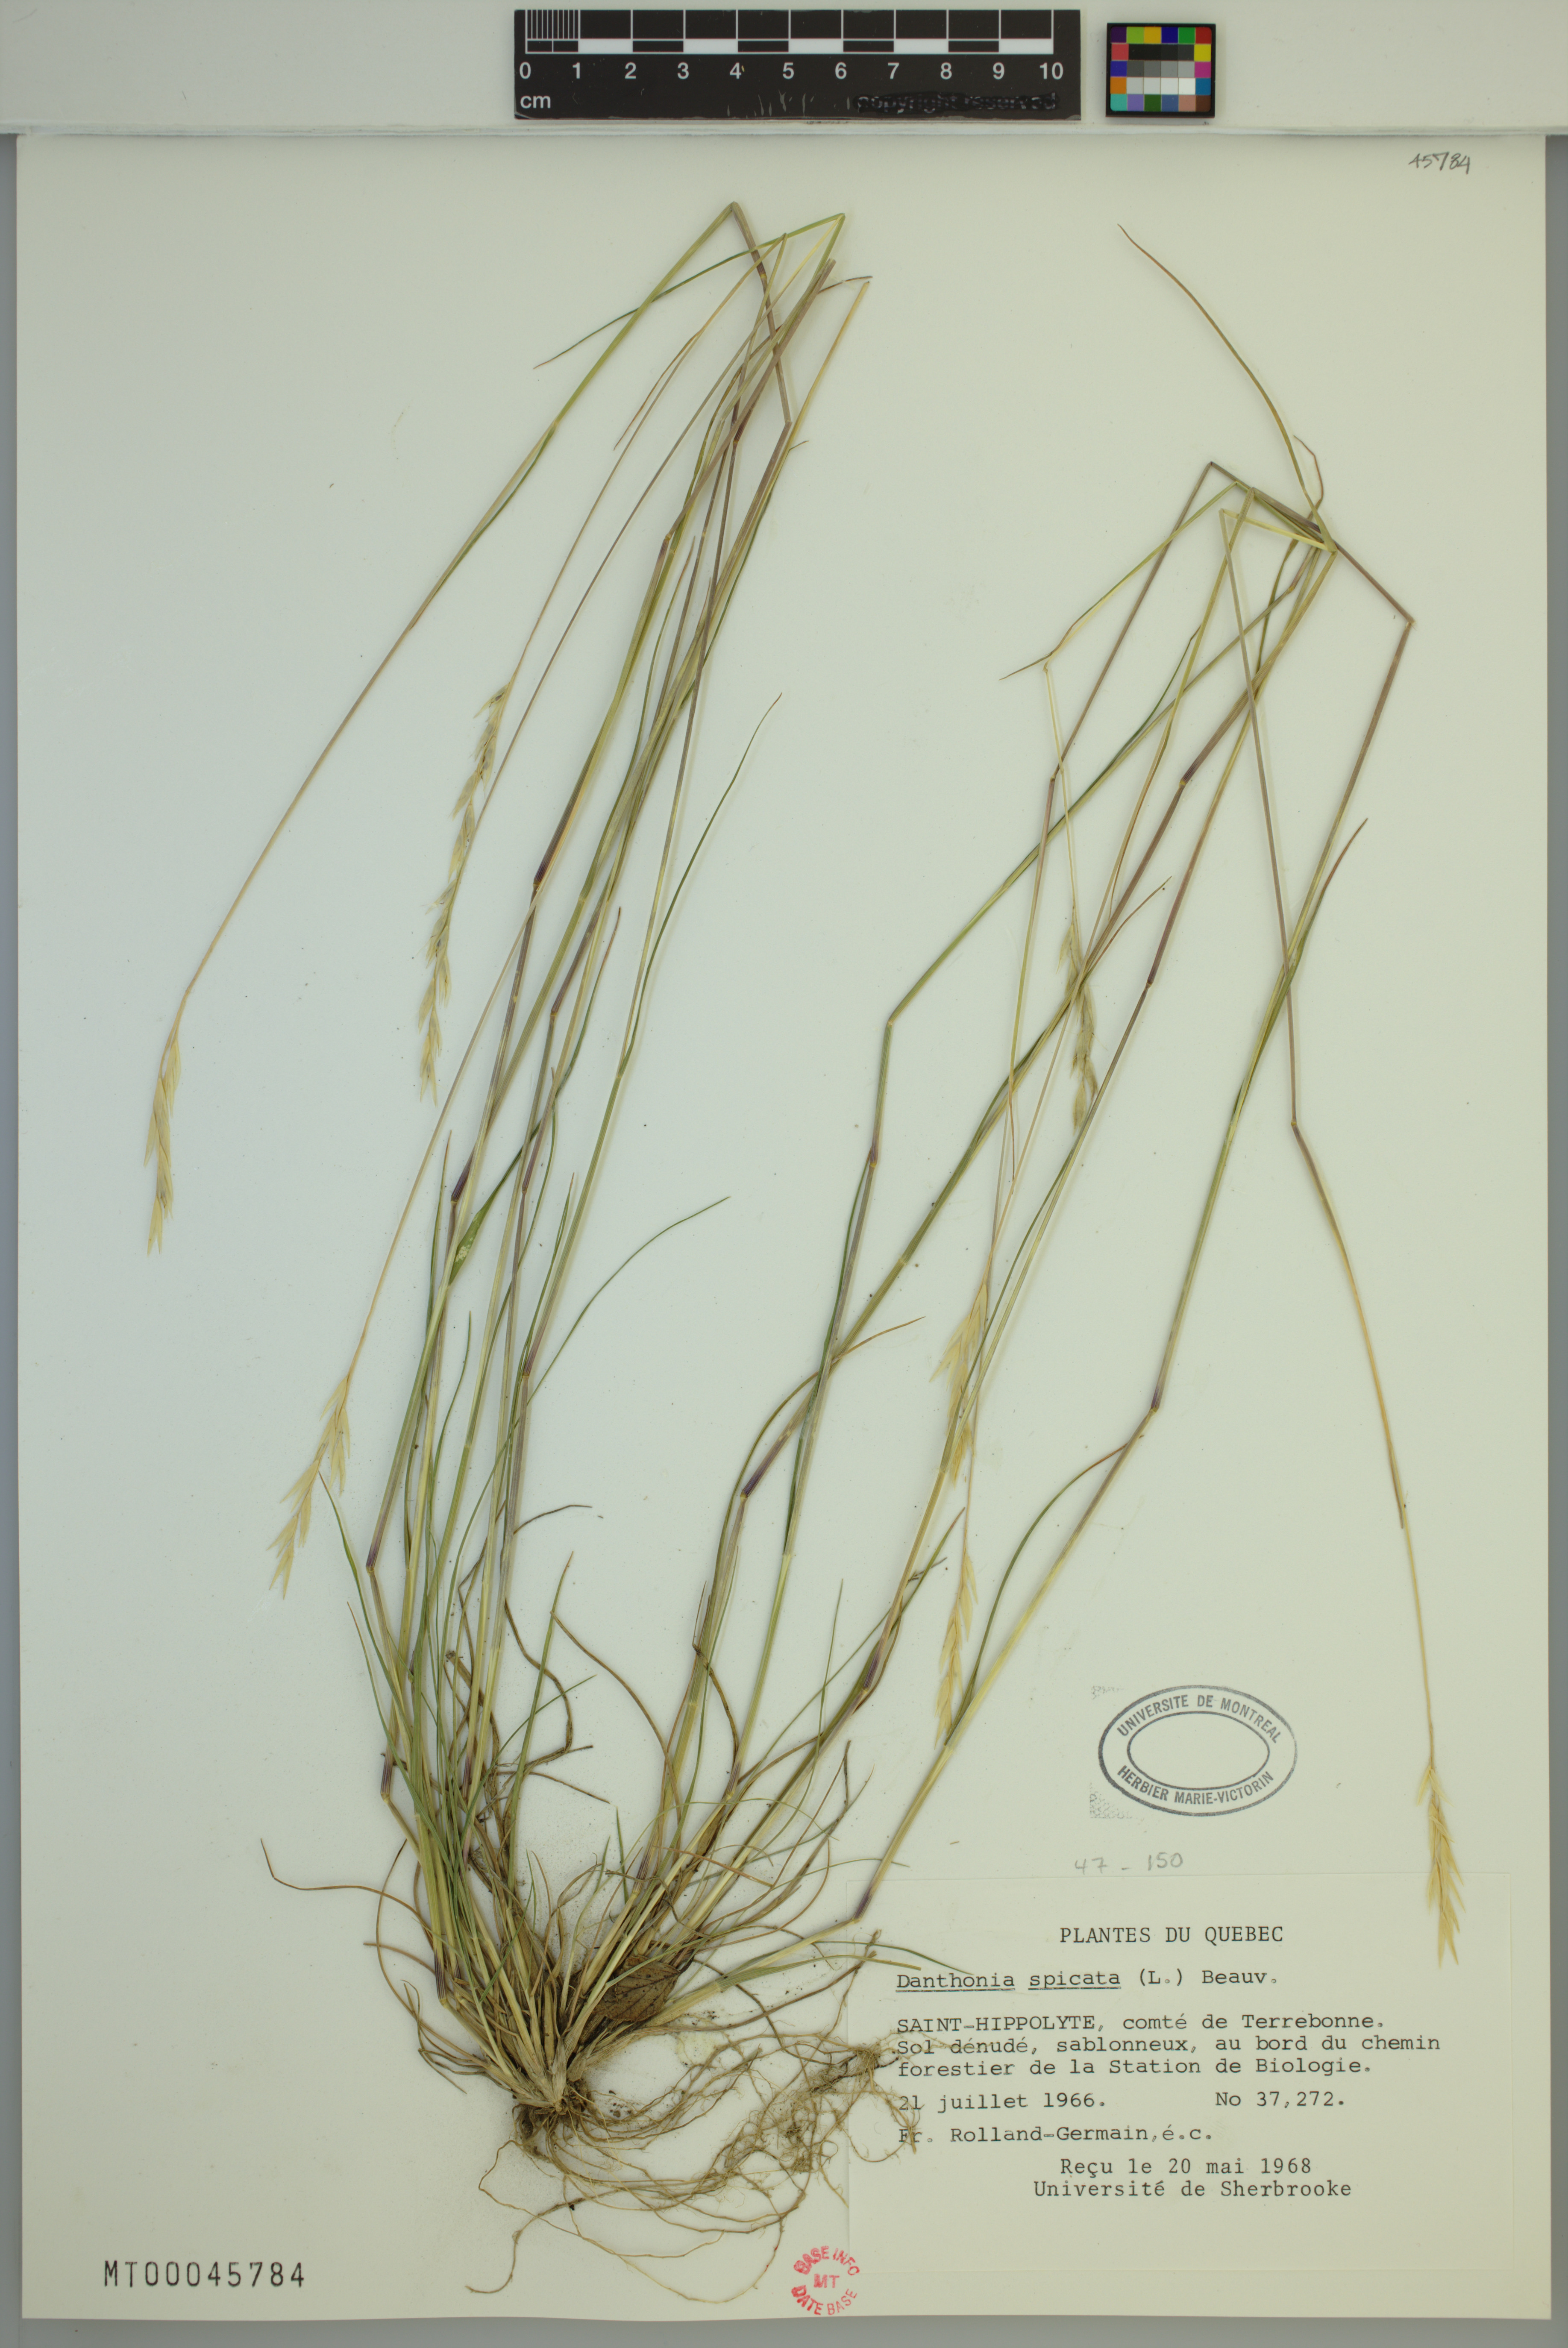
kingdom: Plantae
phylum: Tracheophyta
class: Liliopsida
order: Poales
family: Poaceae
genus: Danthonia
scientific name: Danthonia spicata
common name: Common wild oatgrass
